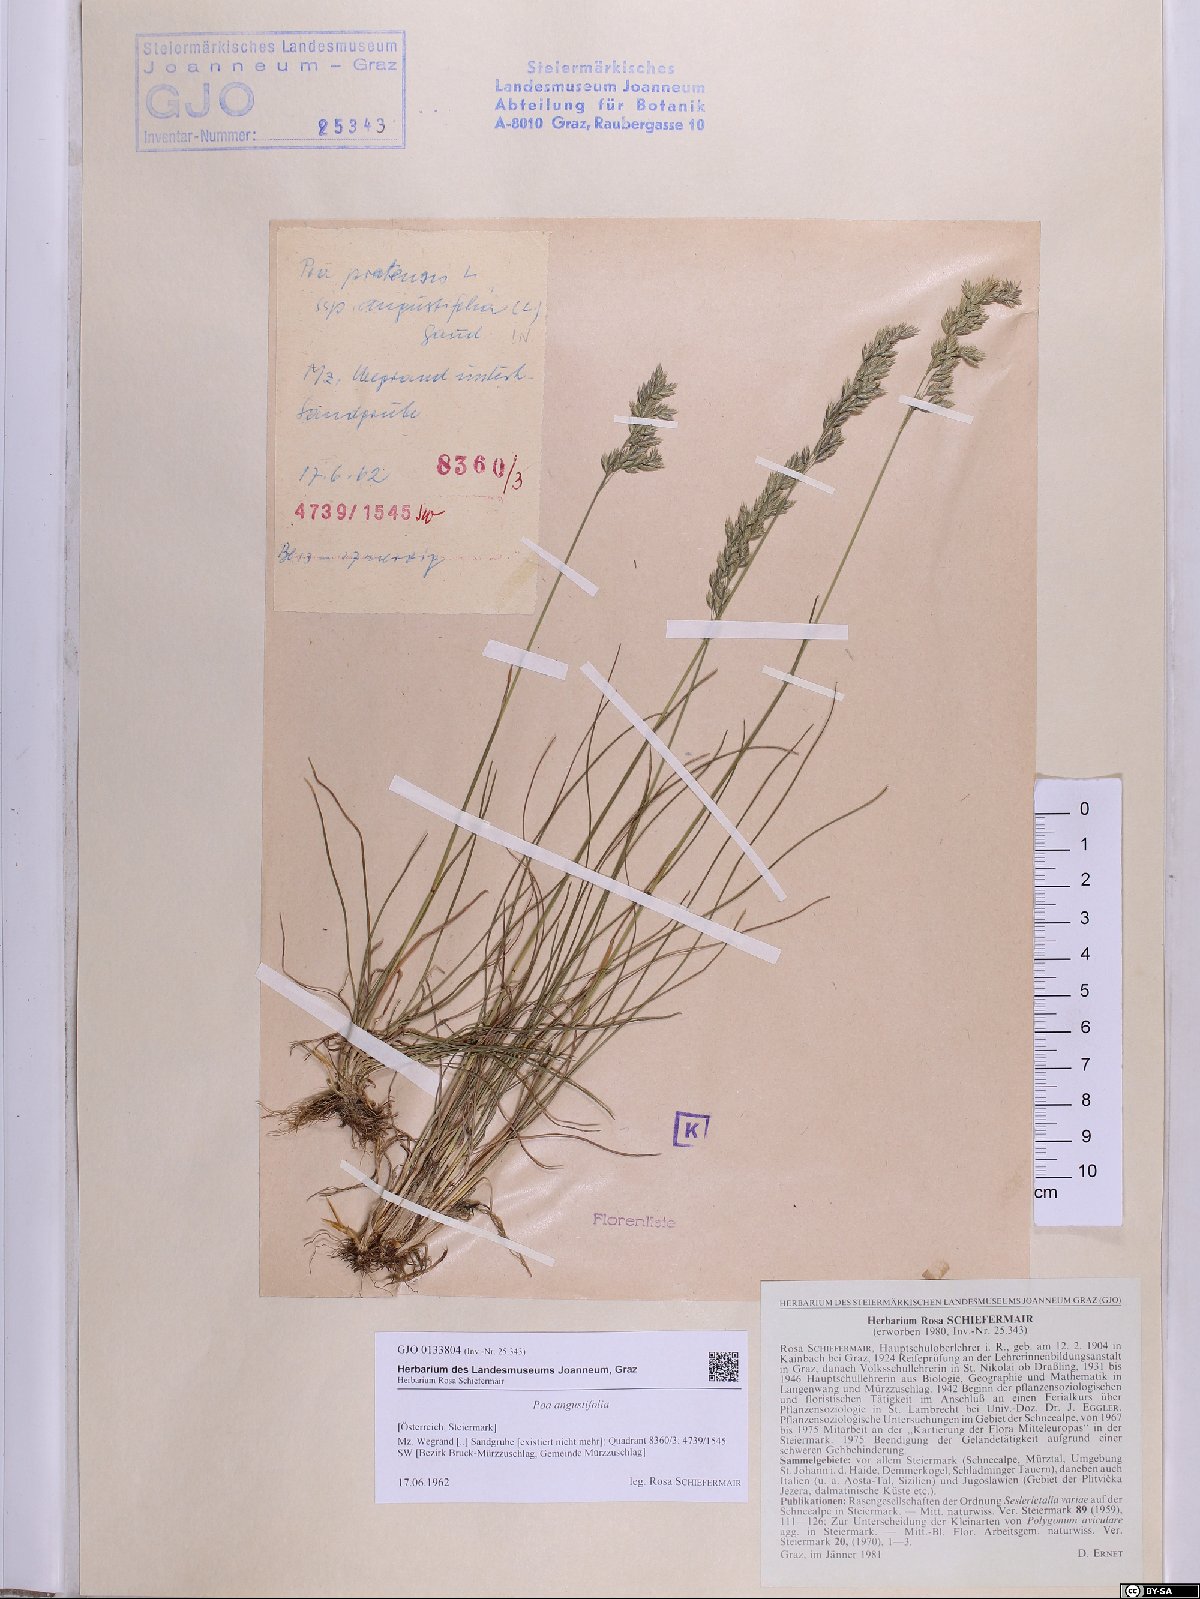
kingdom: Plantae
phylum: Tracheophyta
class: Liliopsida
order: Poales
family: Poaceae
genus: Poa
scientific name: Poa angustifolia
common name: Narrow-leaved meadow-grass
